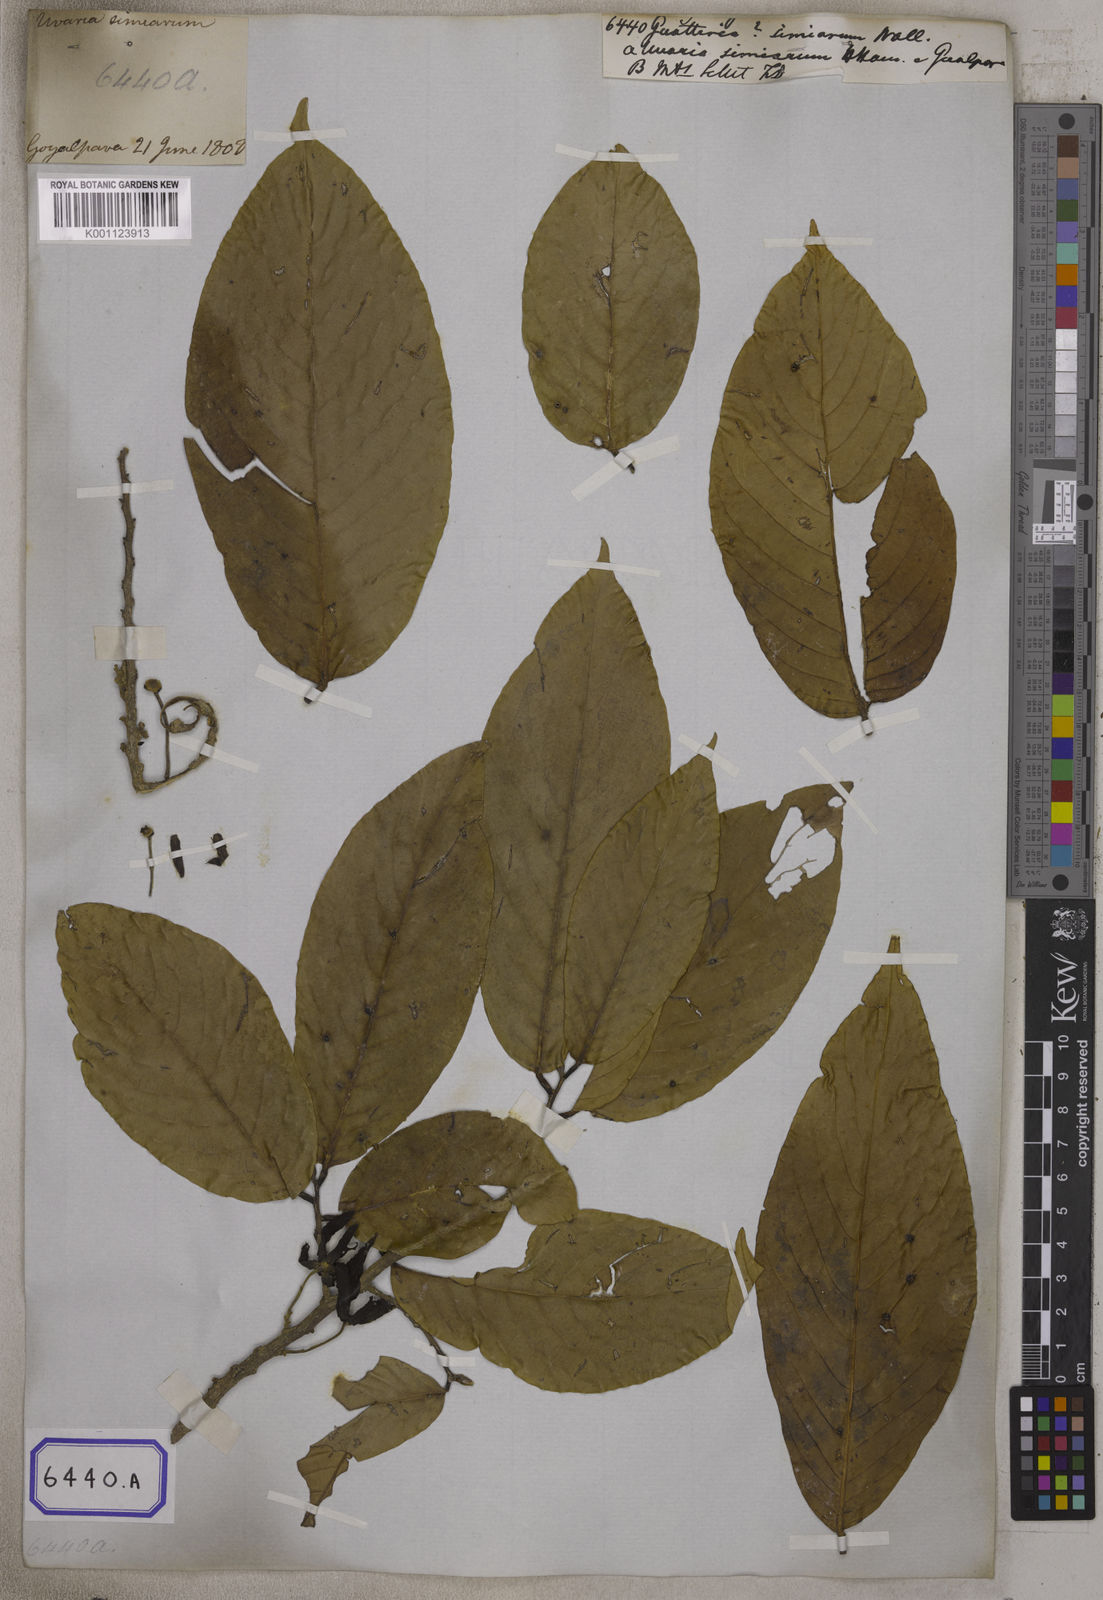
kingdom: Plantae
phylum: Tracheophyta
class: Magnoliopsida
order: Magnoliales
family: Annonaceae
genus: Guatteria
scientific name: Guatteria
